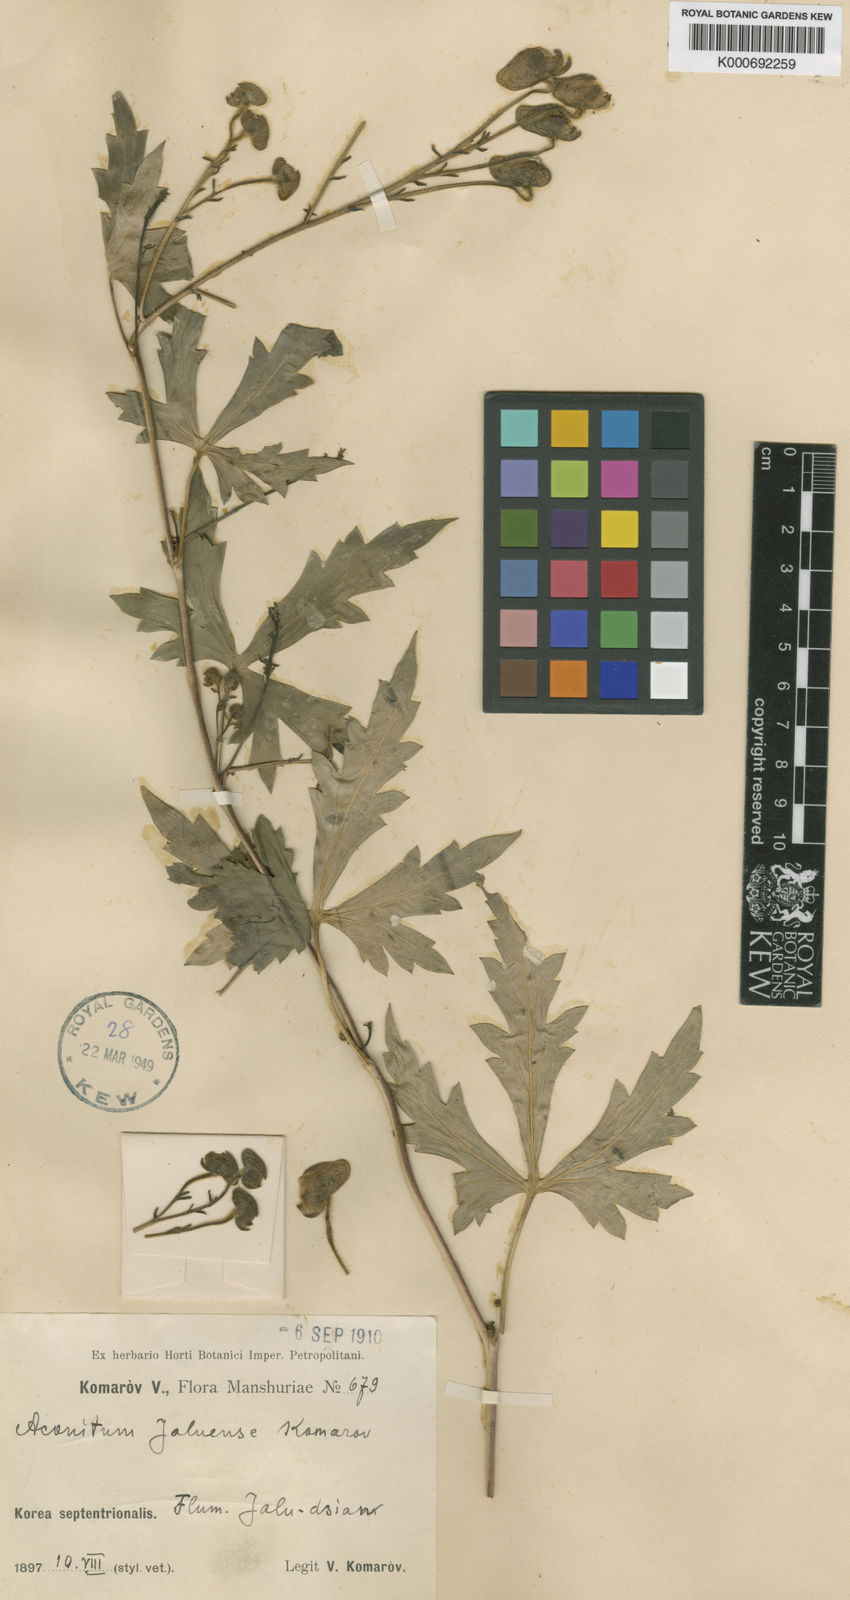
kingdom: Plantae
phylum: Tracheophyta
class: Magnoliopsida
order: Ranunculales
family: Ranunculaceae
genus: Aconitum
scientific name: Aconitum jaluense
